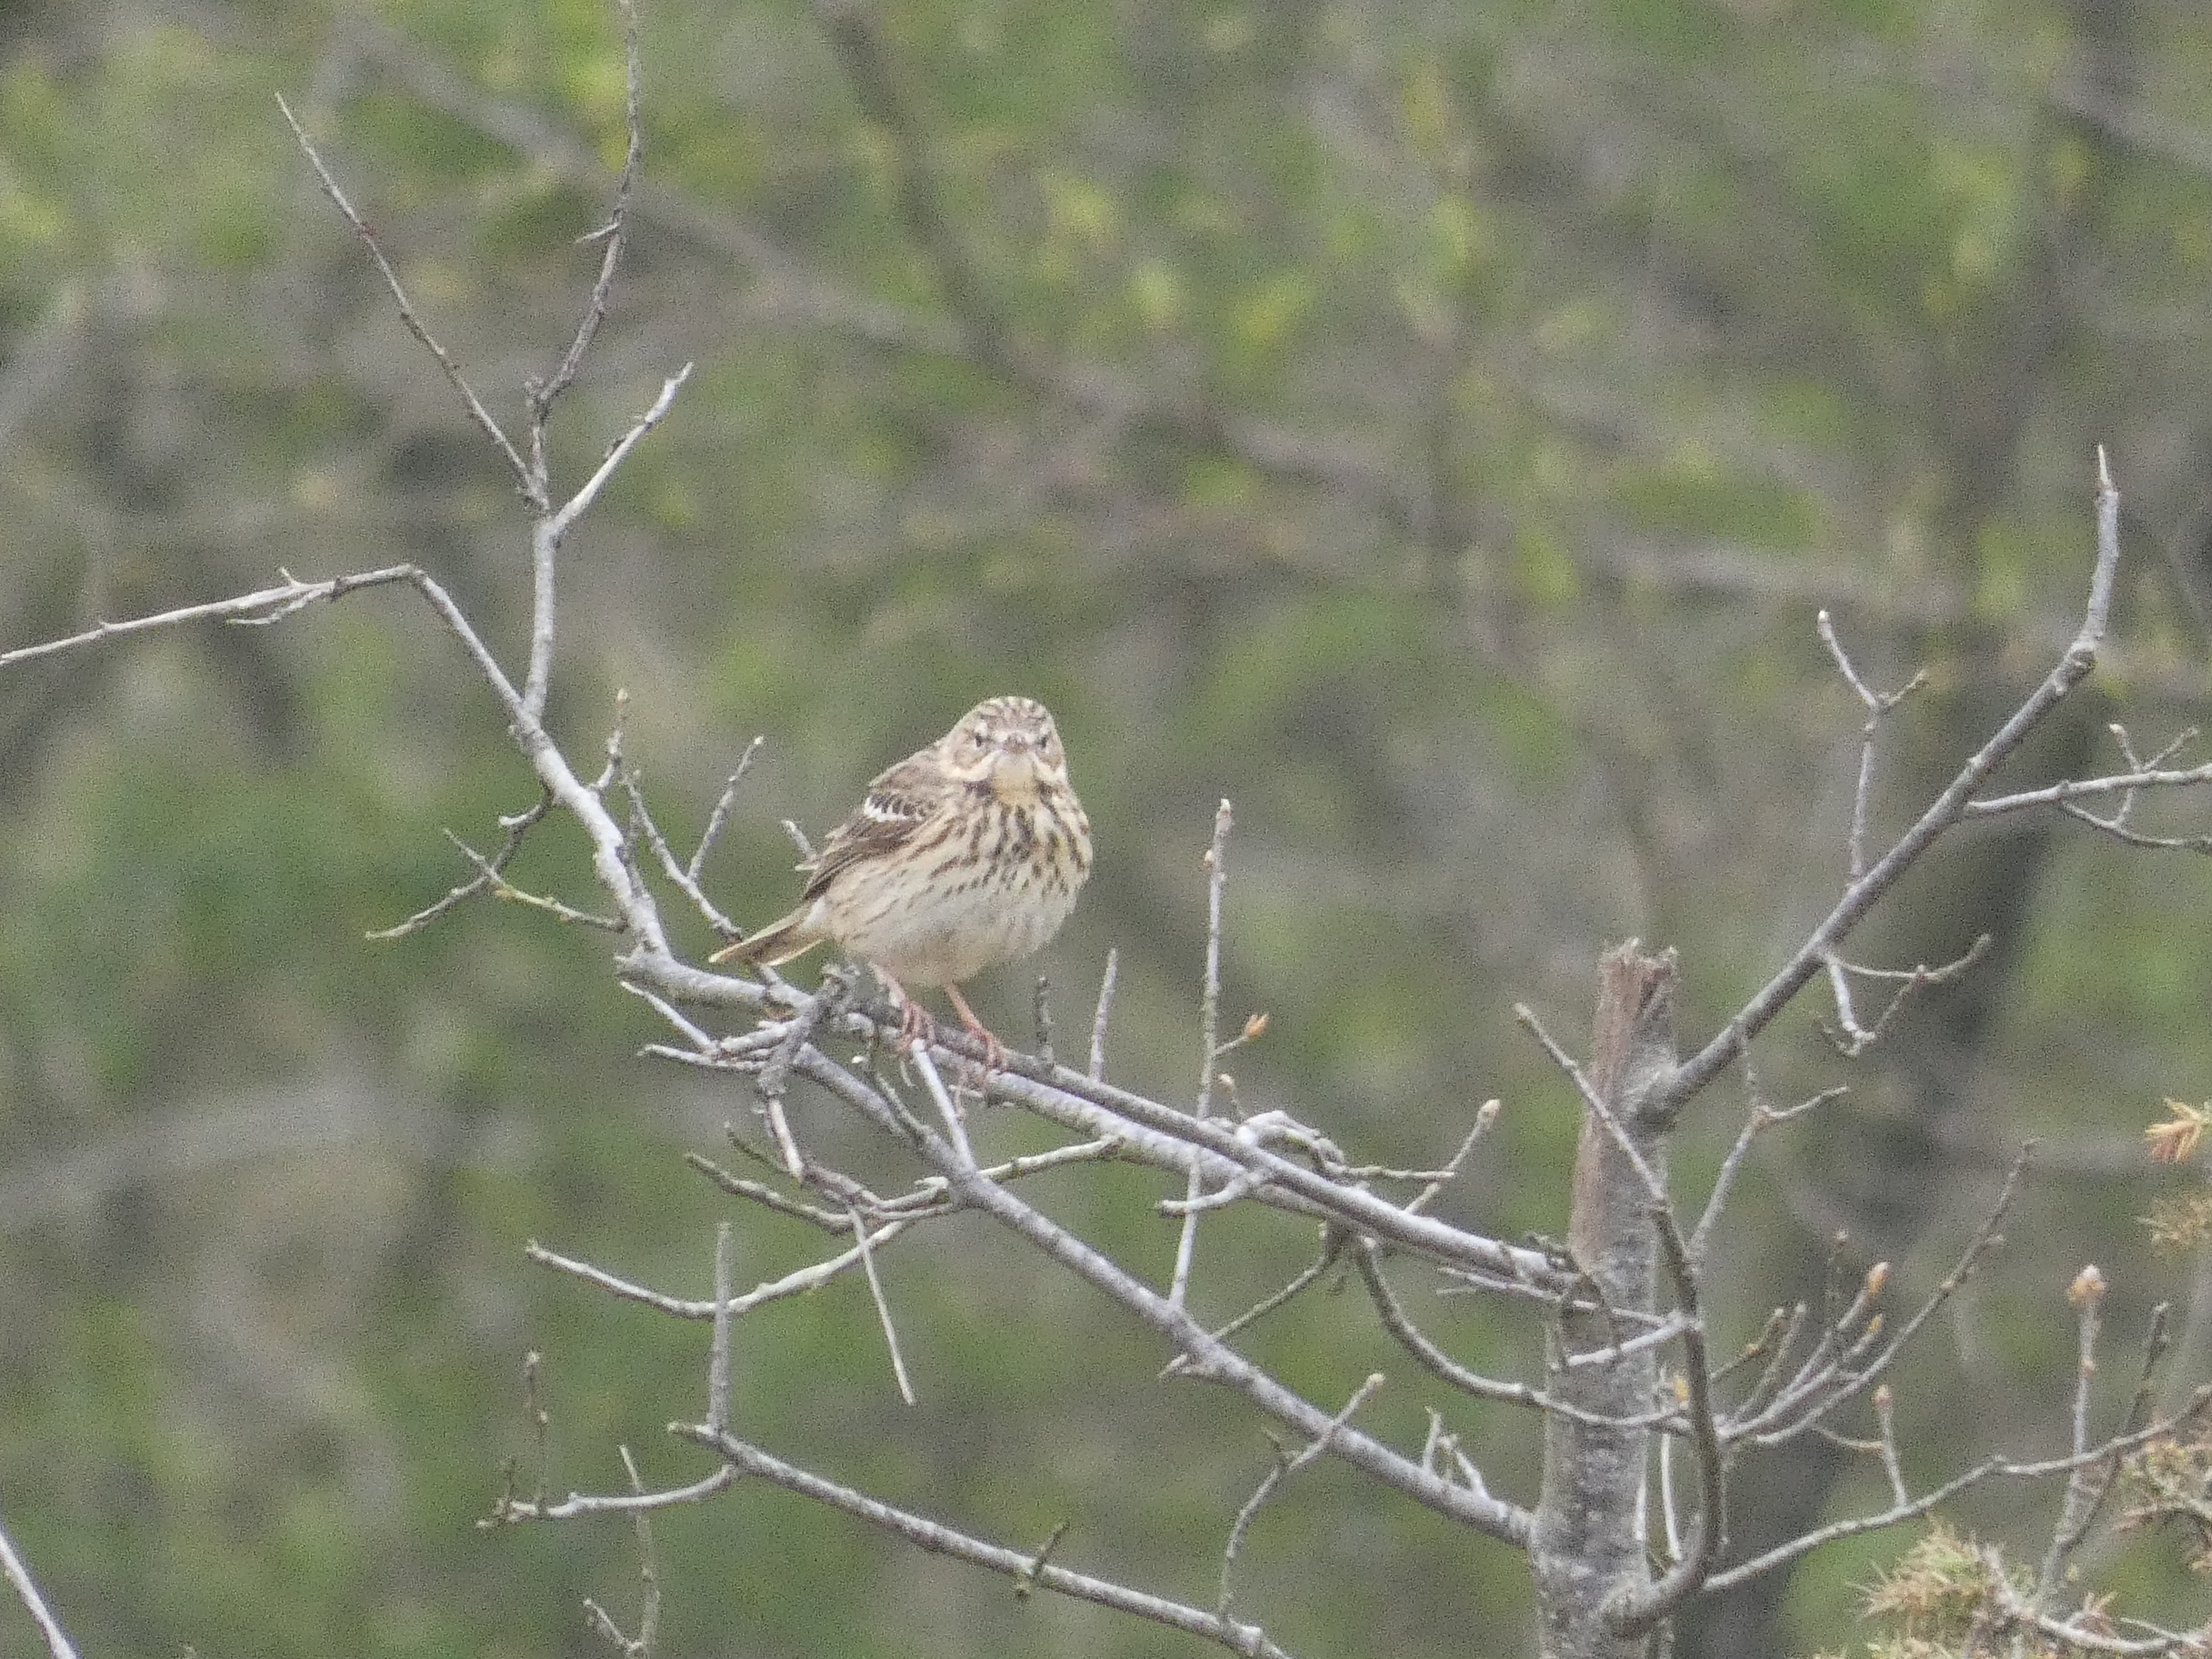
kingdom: Animalia
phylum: Chordata
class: Aves
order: Passeriformes
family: Motacillidae
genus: Anthus
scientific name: Anthus trivialis
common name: Skovpiber
